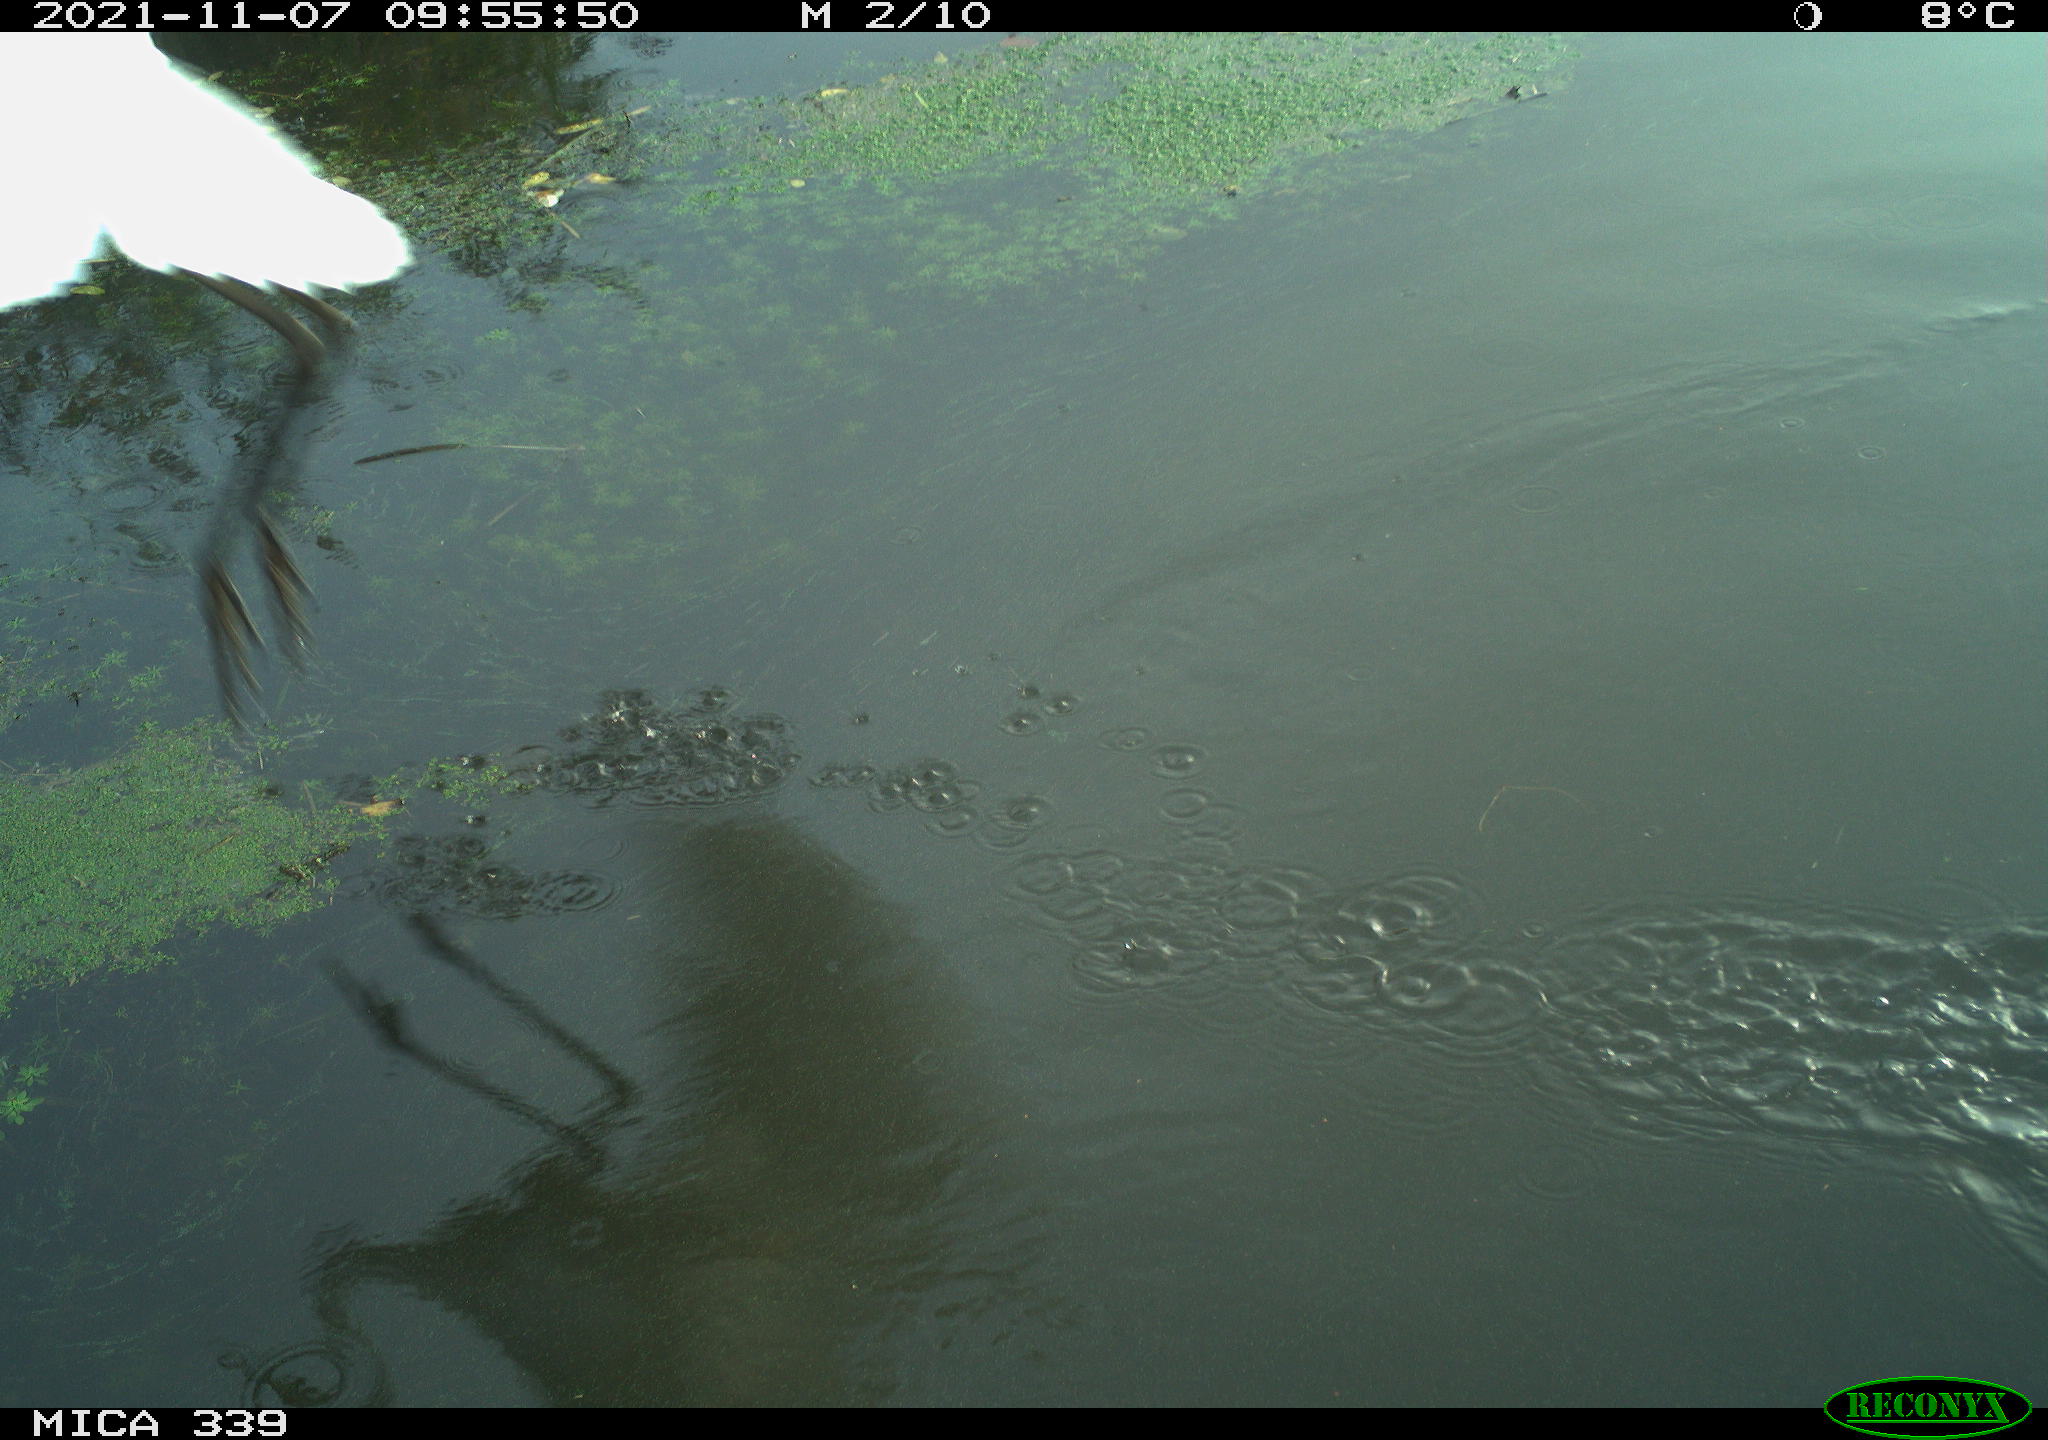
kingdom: Animalia
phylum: Chordata
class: Aves
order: Pelecaniformes
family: Ardeidae
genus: Ardea
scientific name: Ardea alba
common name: Great egret
